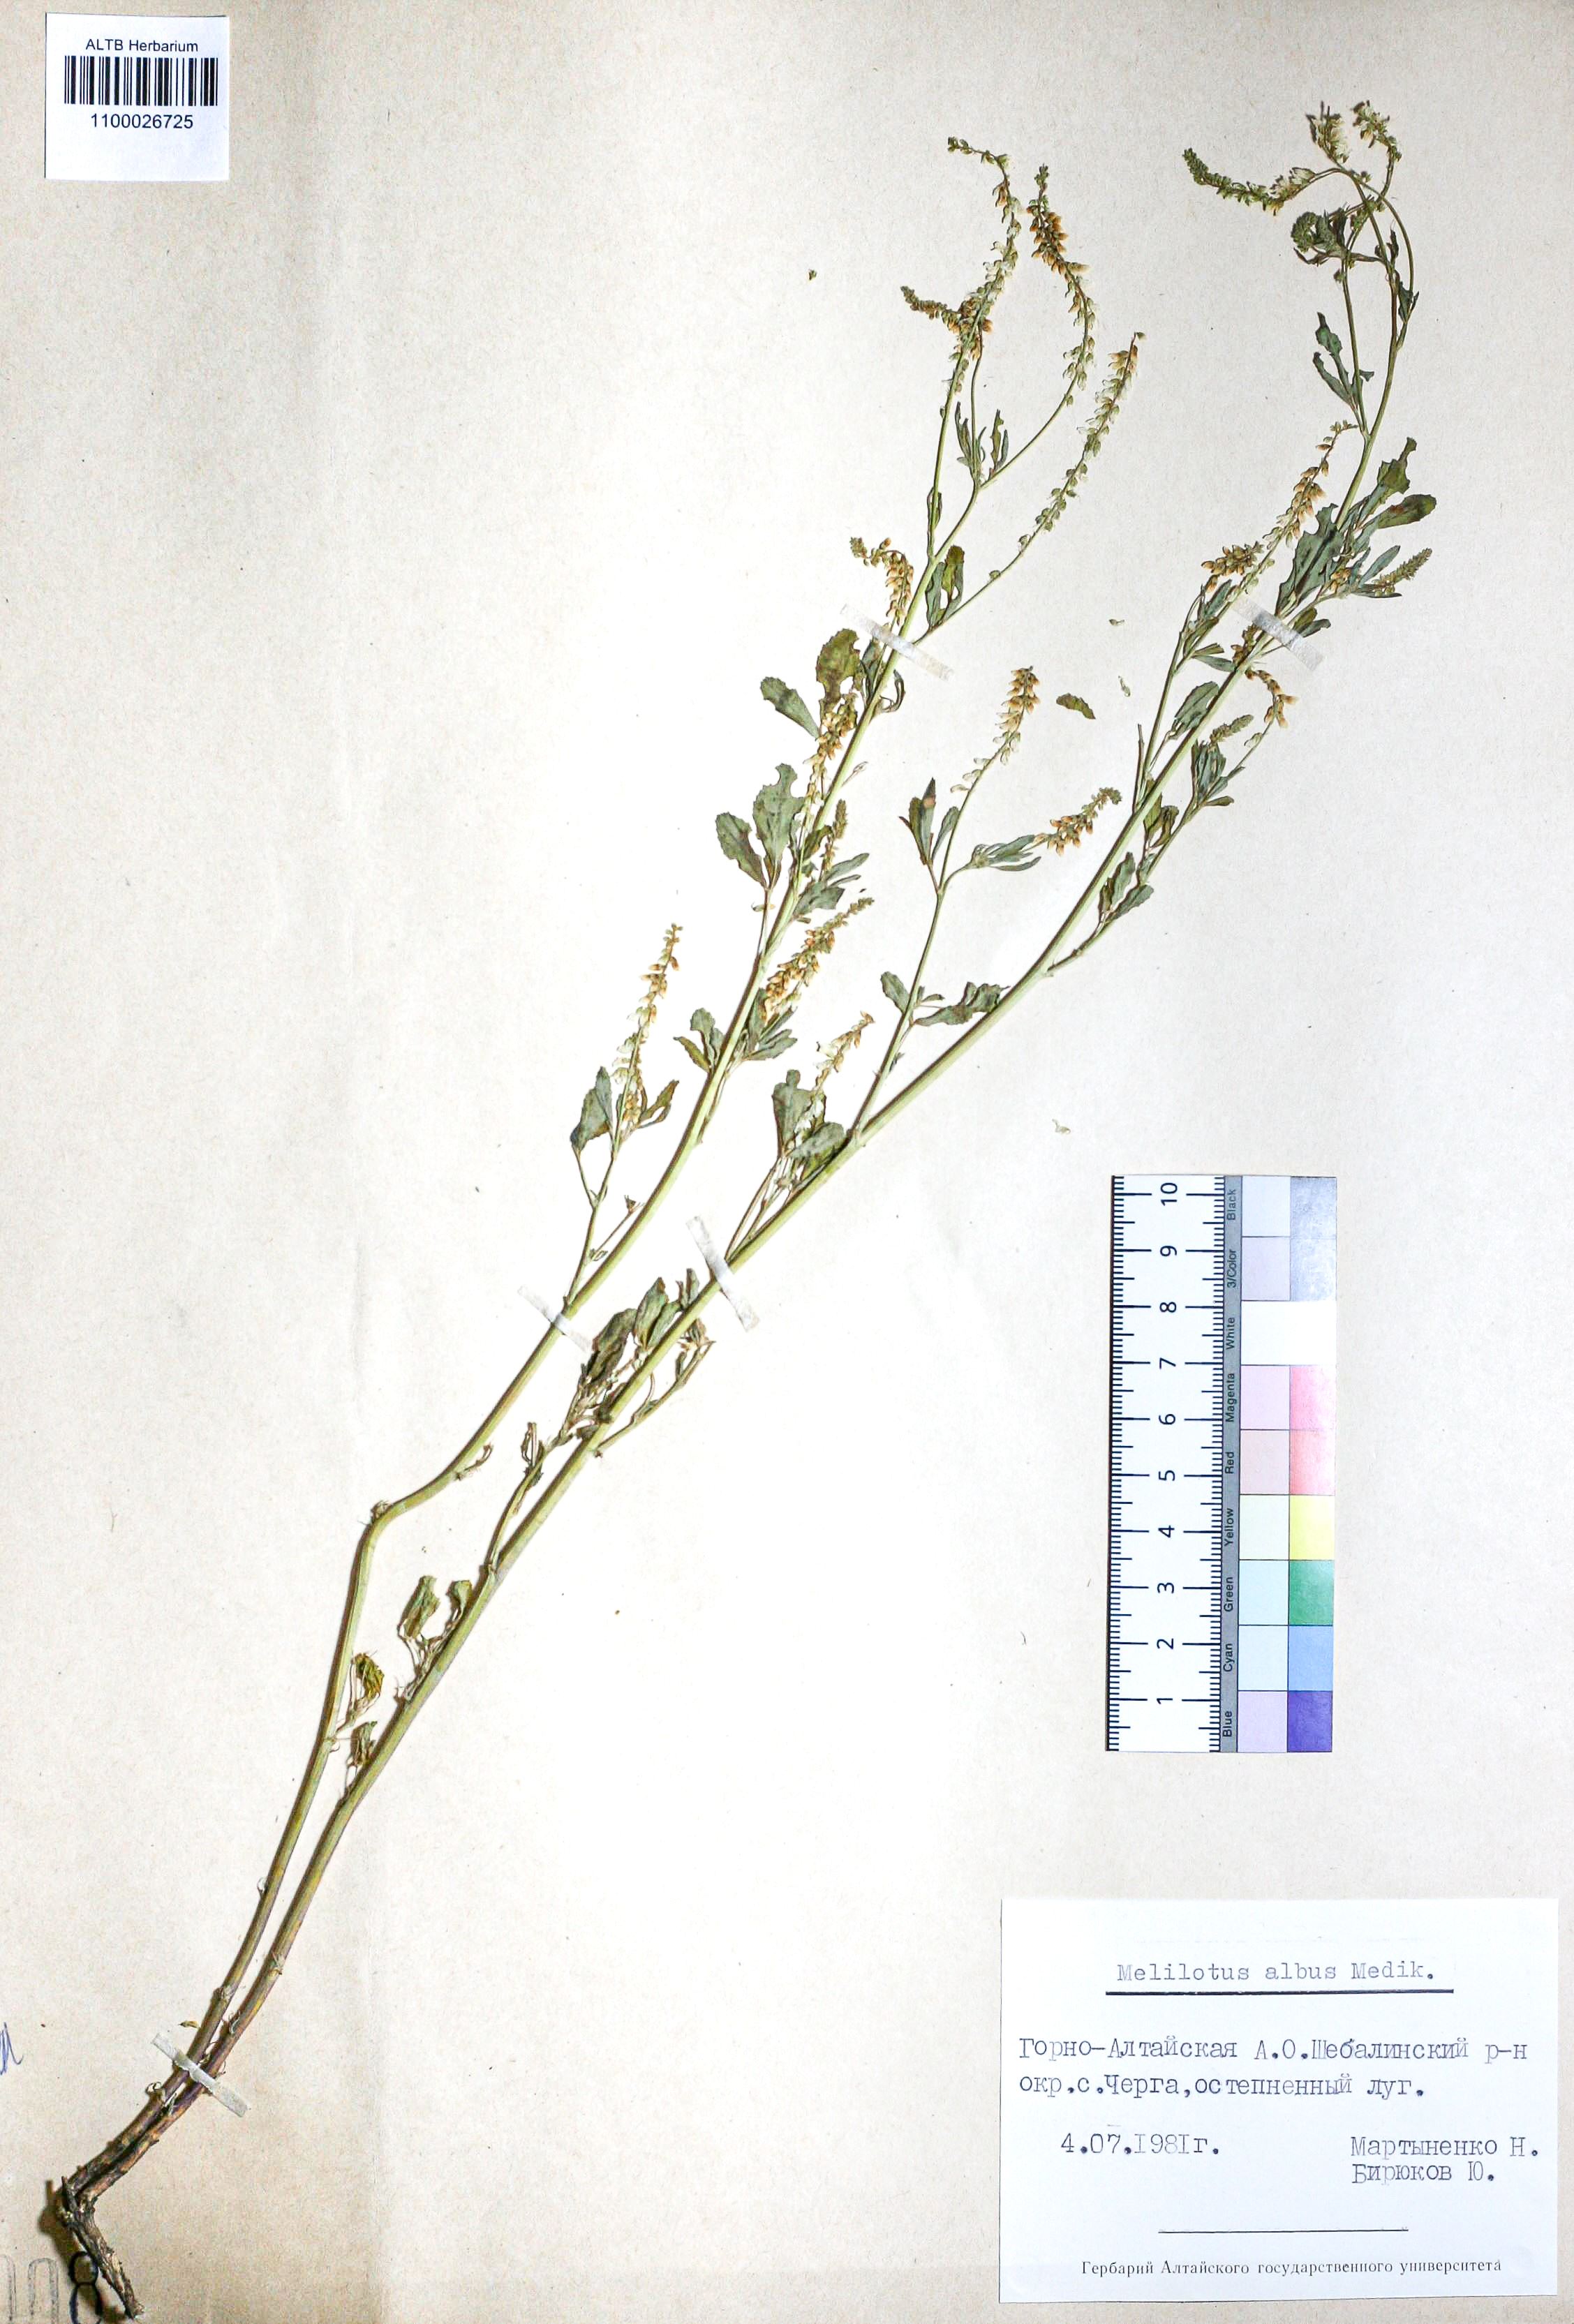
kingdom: Plantae
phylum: Tracheophyta
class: Magnoliopsida
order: Fabales
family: Fabaceae
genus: Melilotus
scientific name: Melilotus albus
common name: White melilot
